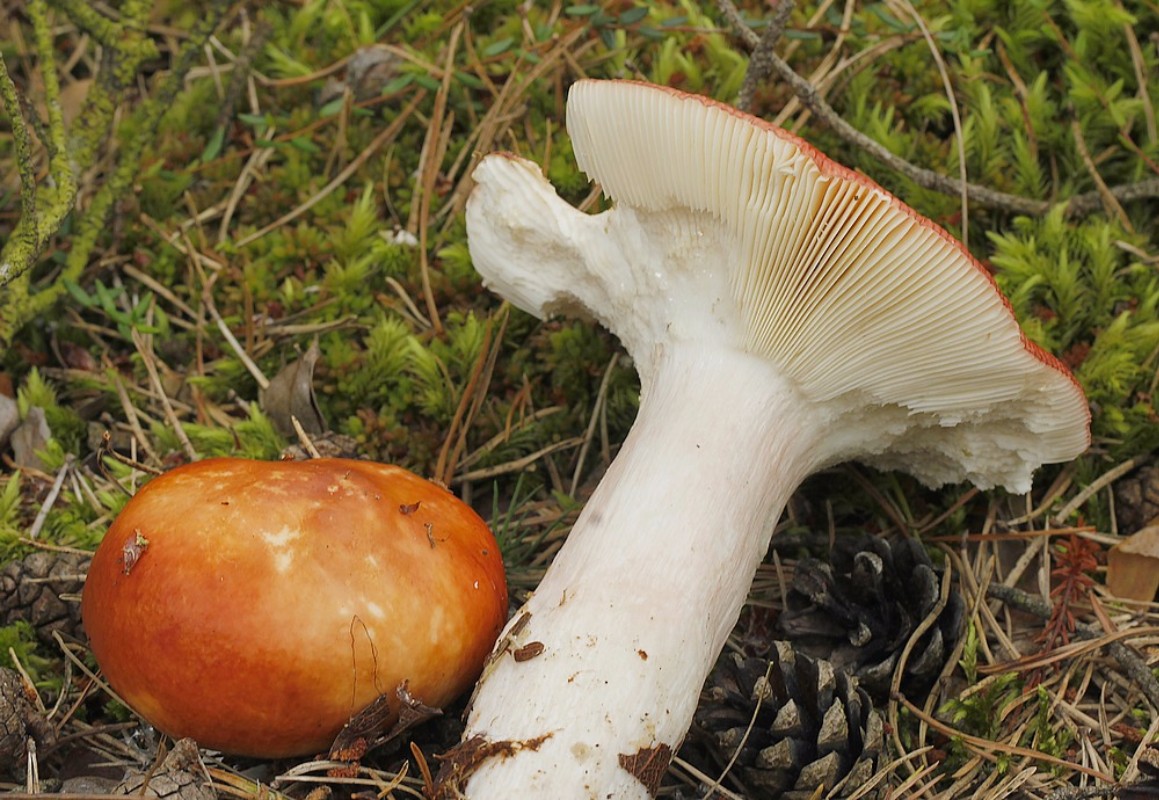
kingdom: Fungi
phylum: Basidiomycota
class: Agaricomycetes
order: Russulales
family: Russulaceae
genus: Russula
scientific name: Russula paludosa
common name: prægtig skørhat
